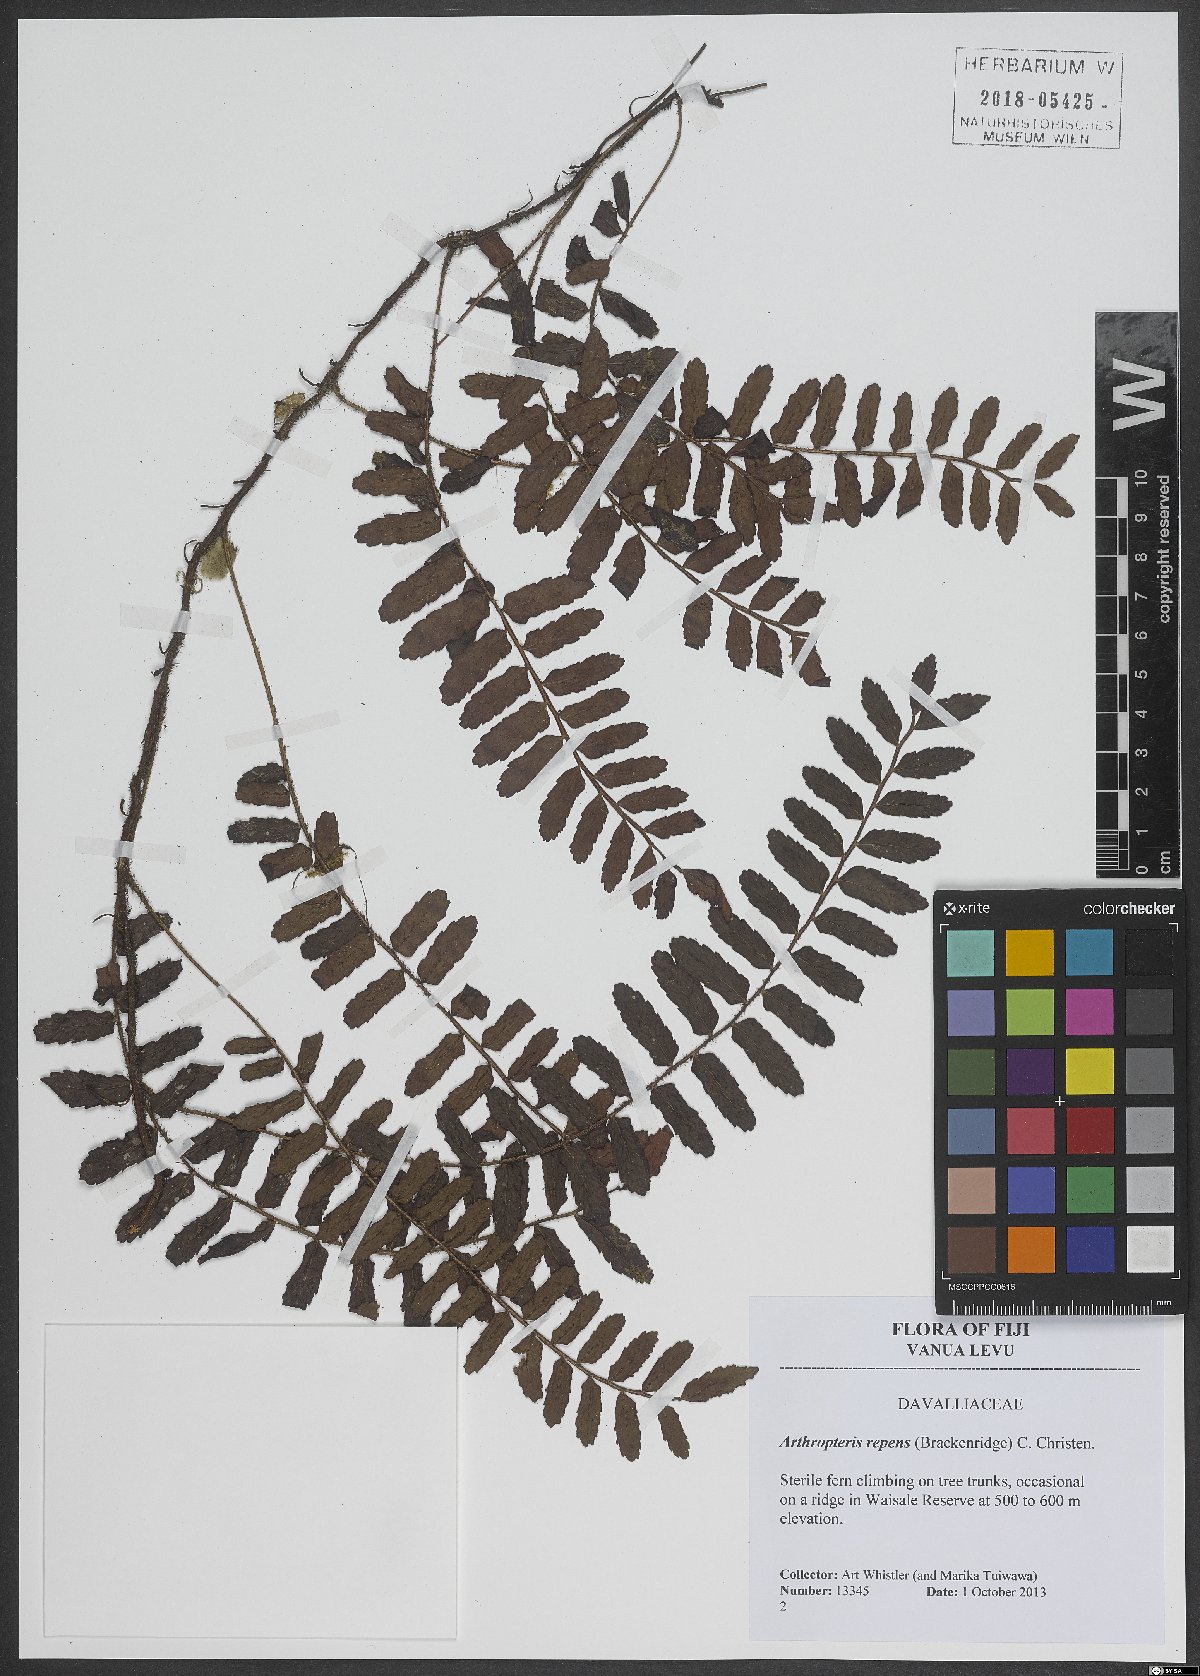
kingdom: Plantae
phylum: Tracheophyta
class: Polypodiopsida
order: Polypodiales
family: Tectariaceae
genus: Arthropteris
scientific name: Arthropteris palisotii
